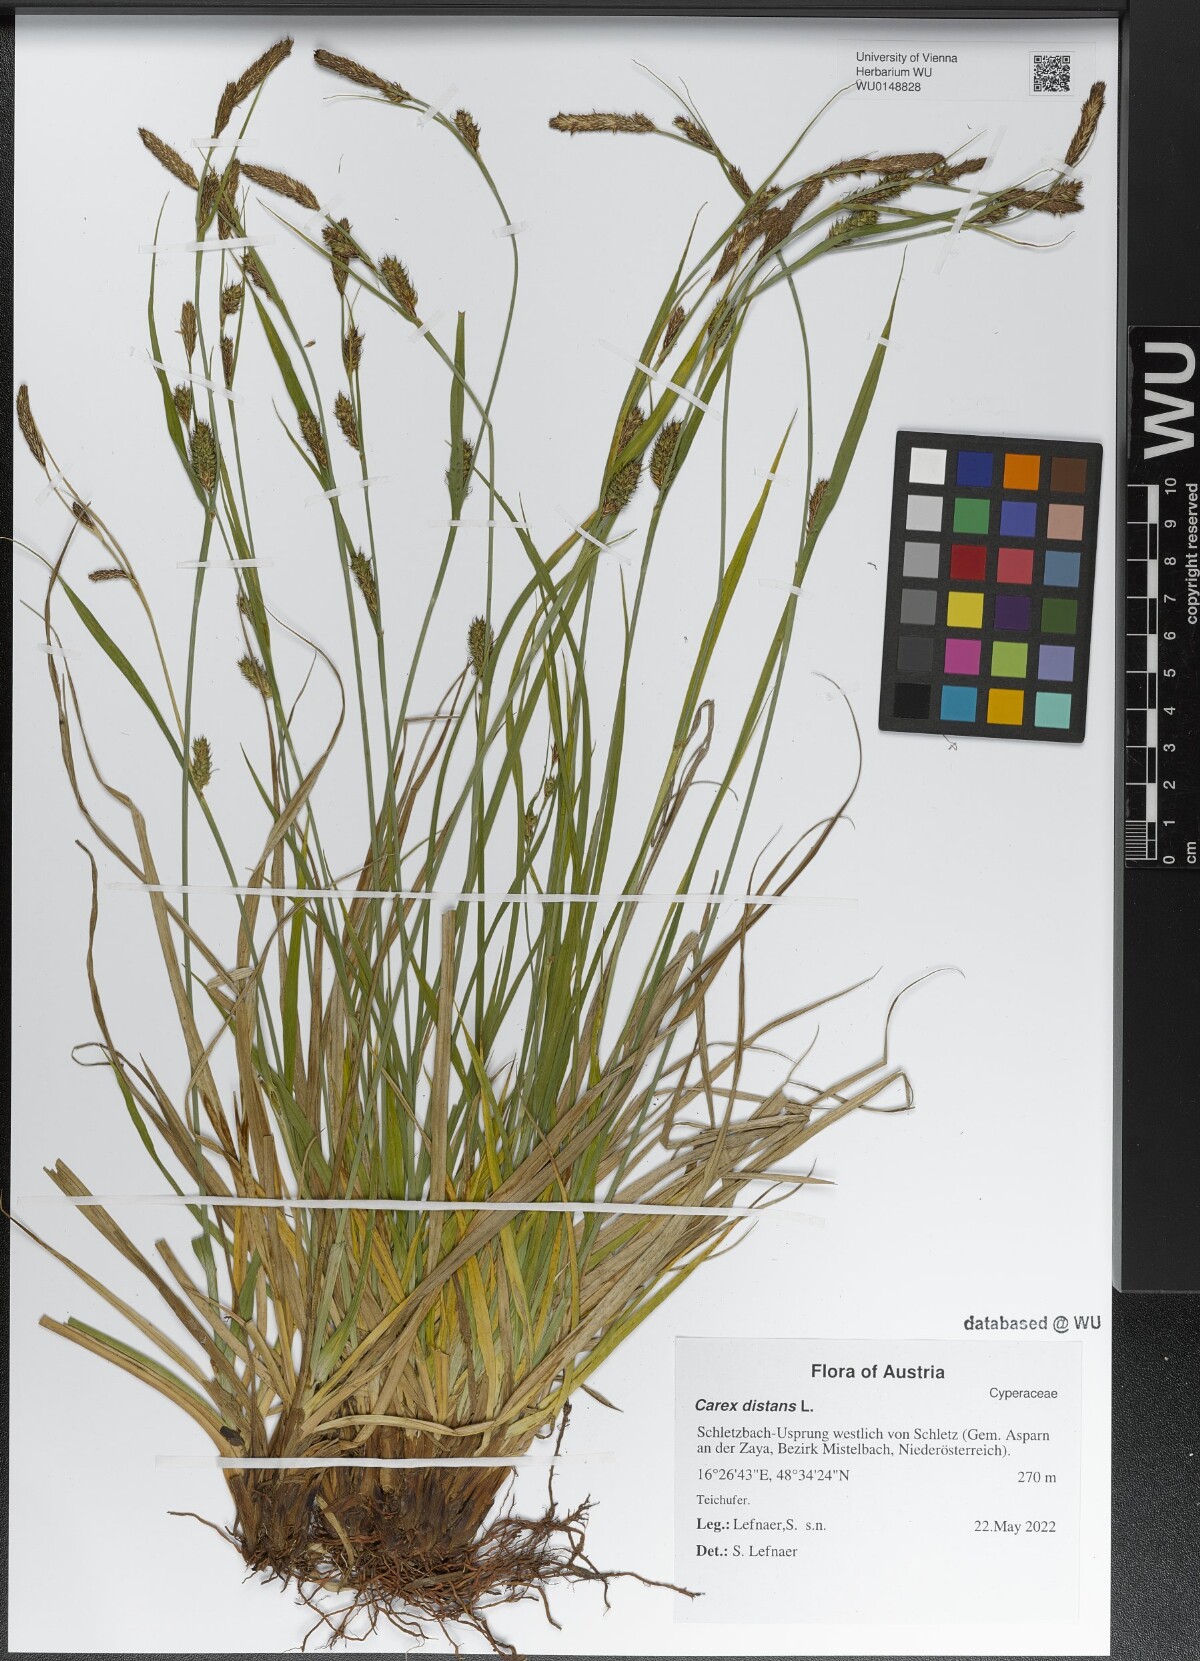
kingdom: Plantae
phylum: Tracheophyta
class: Liliopsida
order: Poales
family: Cyperaceae
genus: Carex
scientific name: Carex distans
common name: Distant sedge
